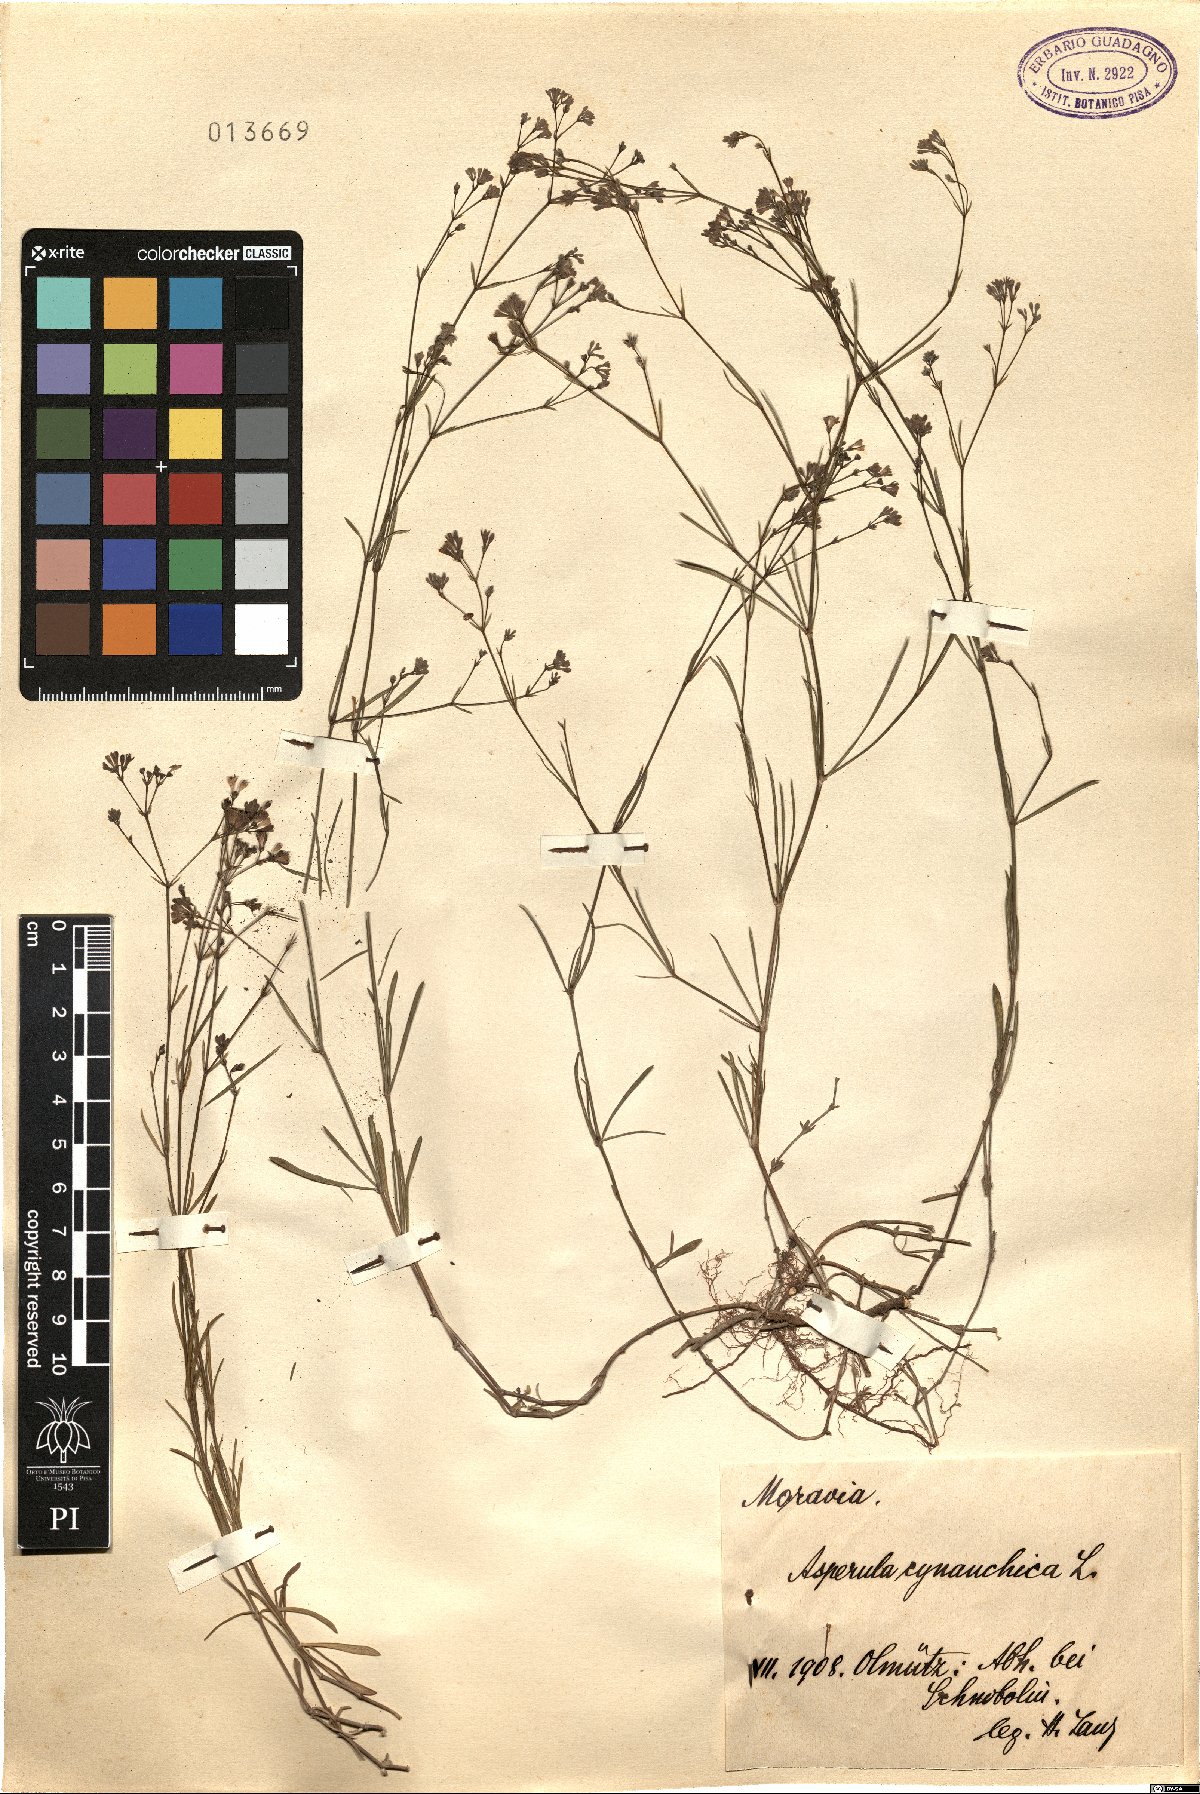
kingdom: Plantae
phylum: Tracheophyta
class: Magnoliopsida
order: Gentianales
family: Rubiaceae
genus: Cynanchica
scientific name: Cynanchica pyrenaica
